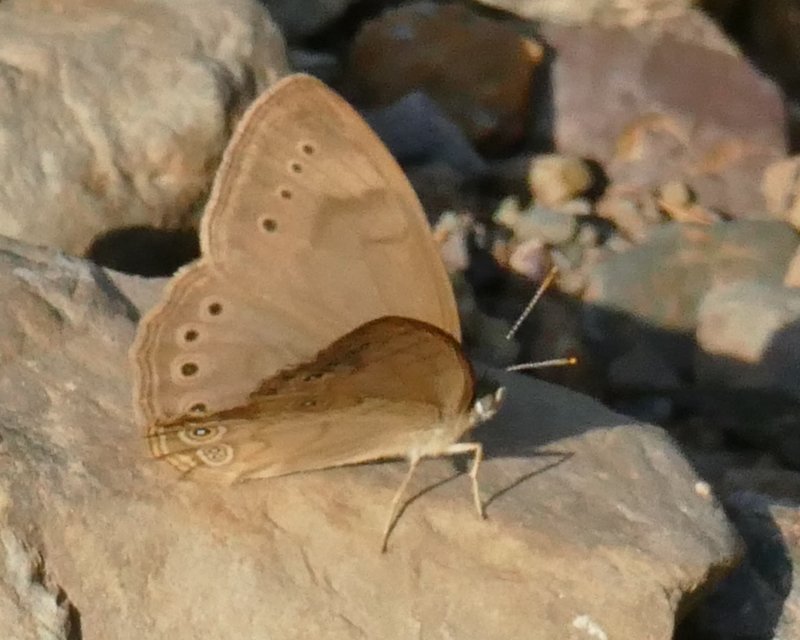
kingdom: Animalia
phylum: Arthropoda
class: Insecta
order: Lepidoptera
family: Nymphalidae
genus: Lethe
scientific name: Lethe eurydice
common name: Eyed Brown
